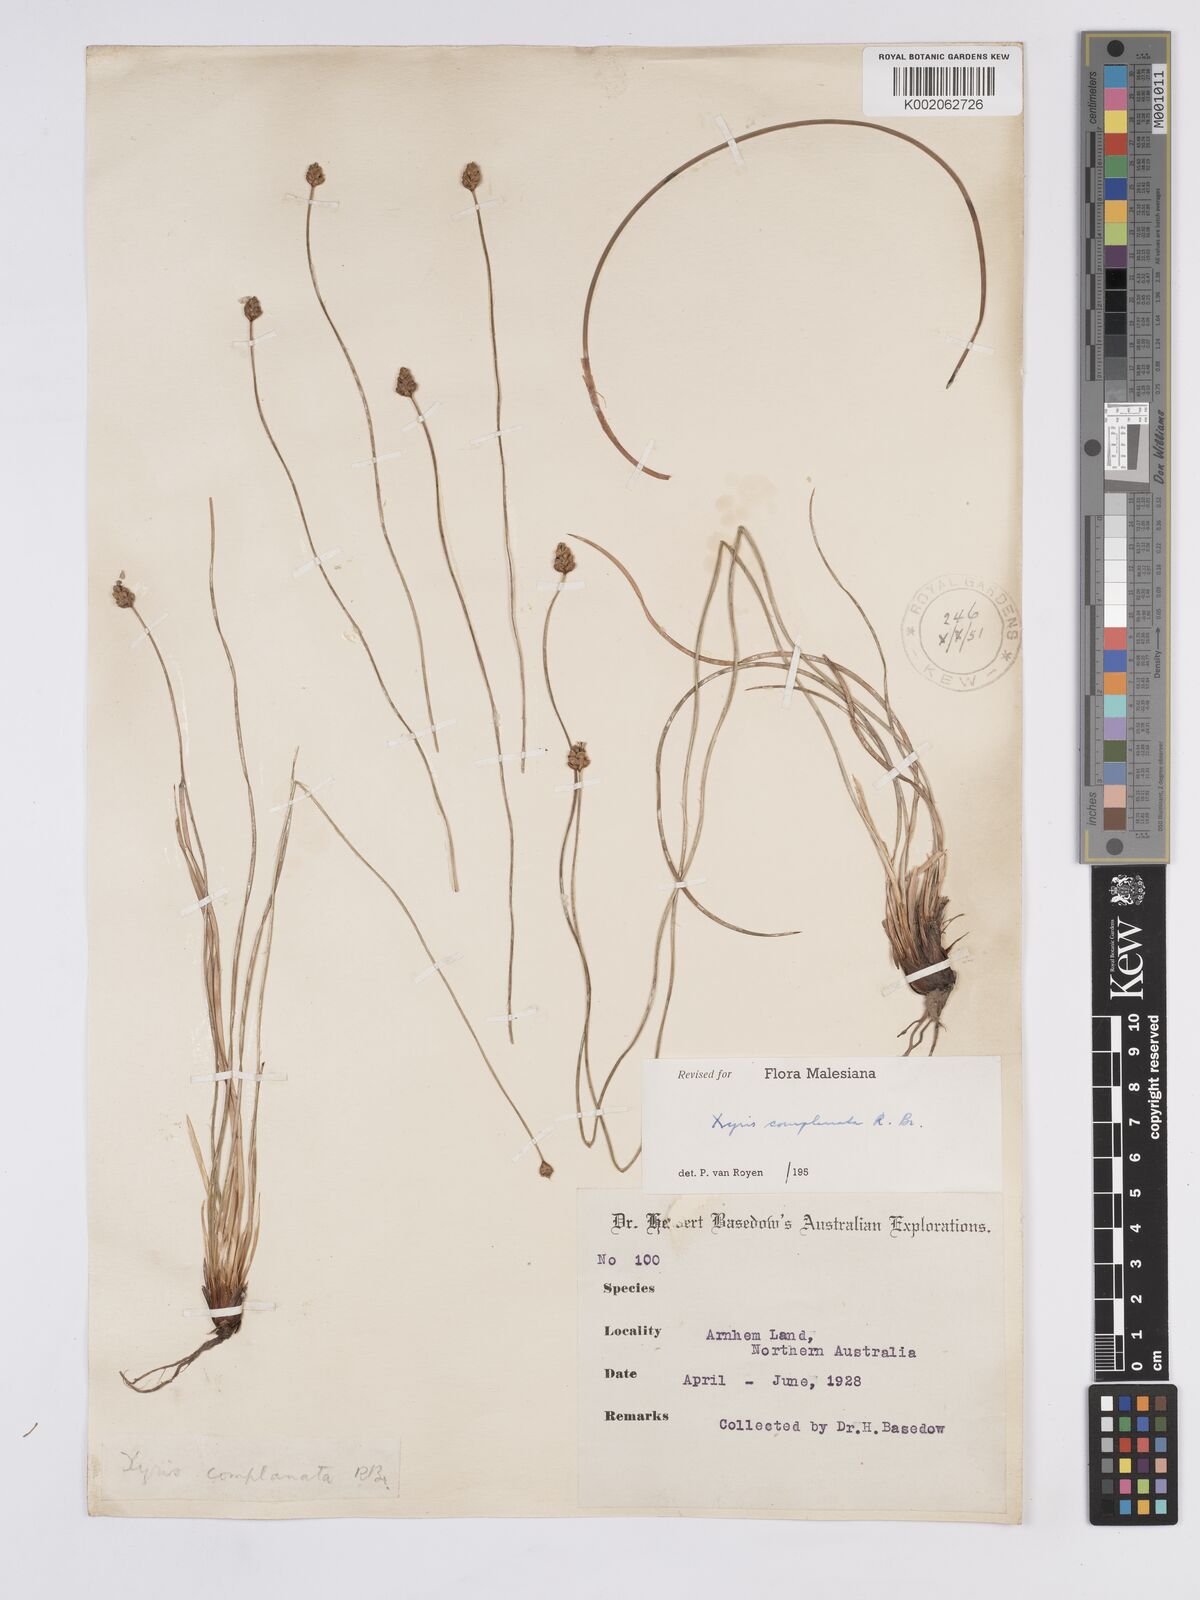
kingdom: Plantae
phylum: Tracheophyta
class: Liliopsida
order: Poales
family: Xyridaceae
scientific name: Xyridaceae
